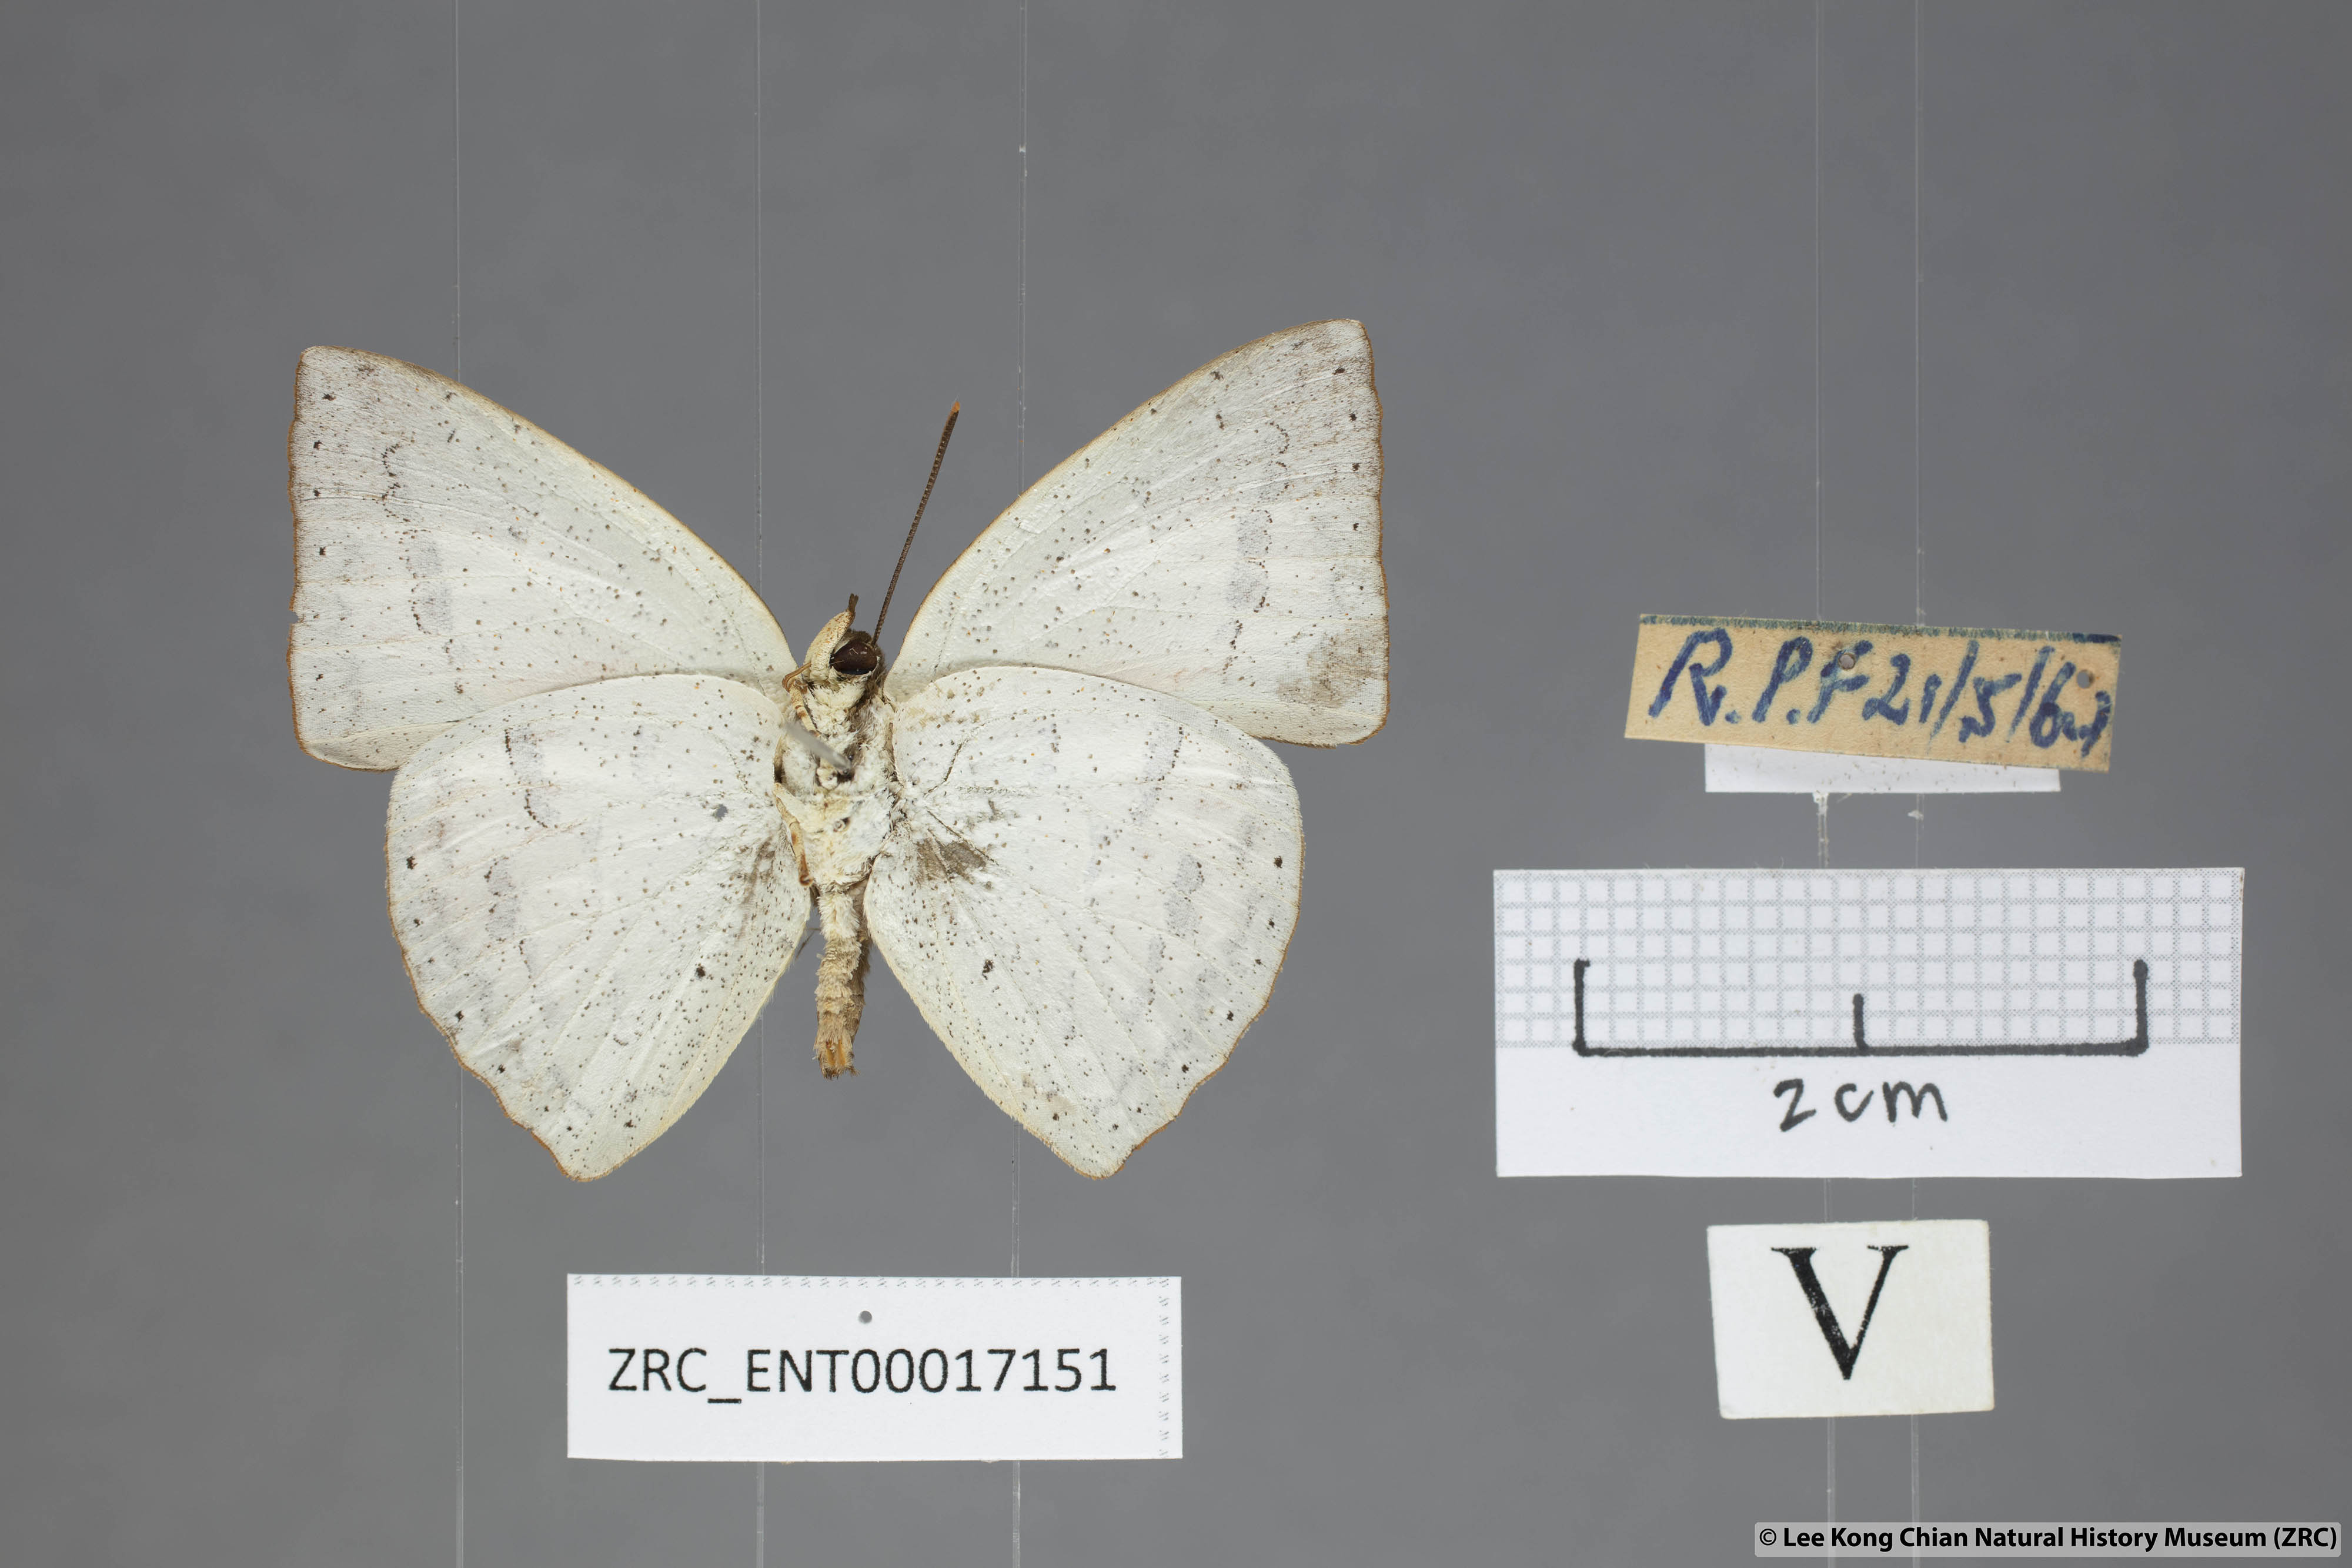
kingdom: Animalia
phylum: Arthropoda
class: Insecta
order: Lepidoptera
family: Lycaenidae
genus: Curetis
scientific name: Curetis santana
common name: Malayan sunbeam
